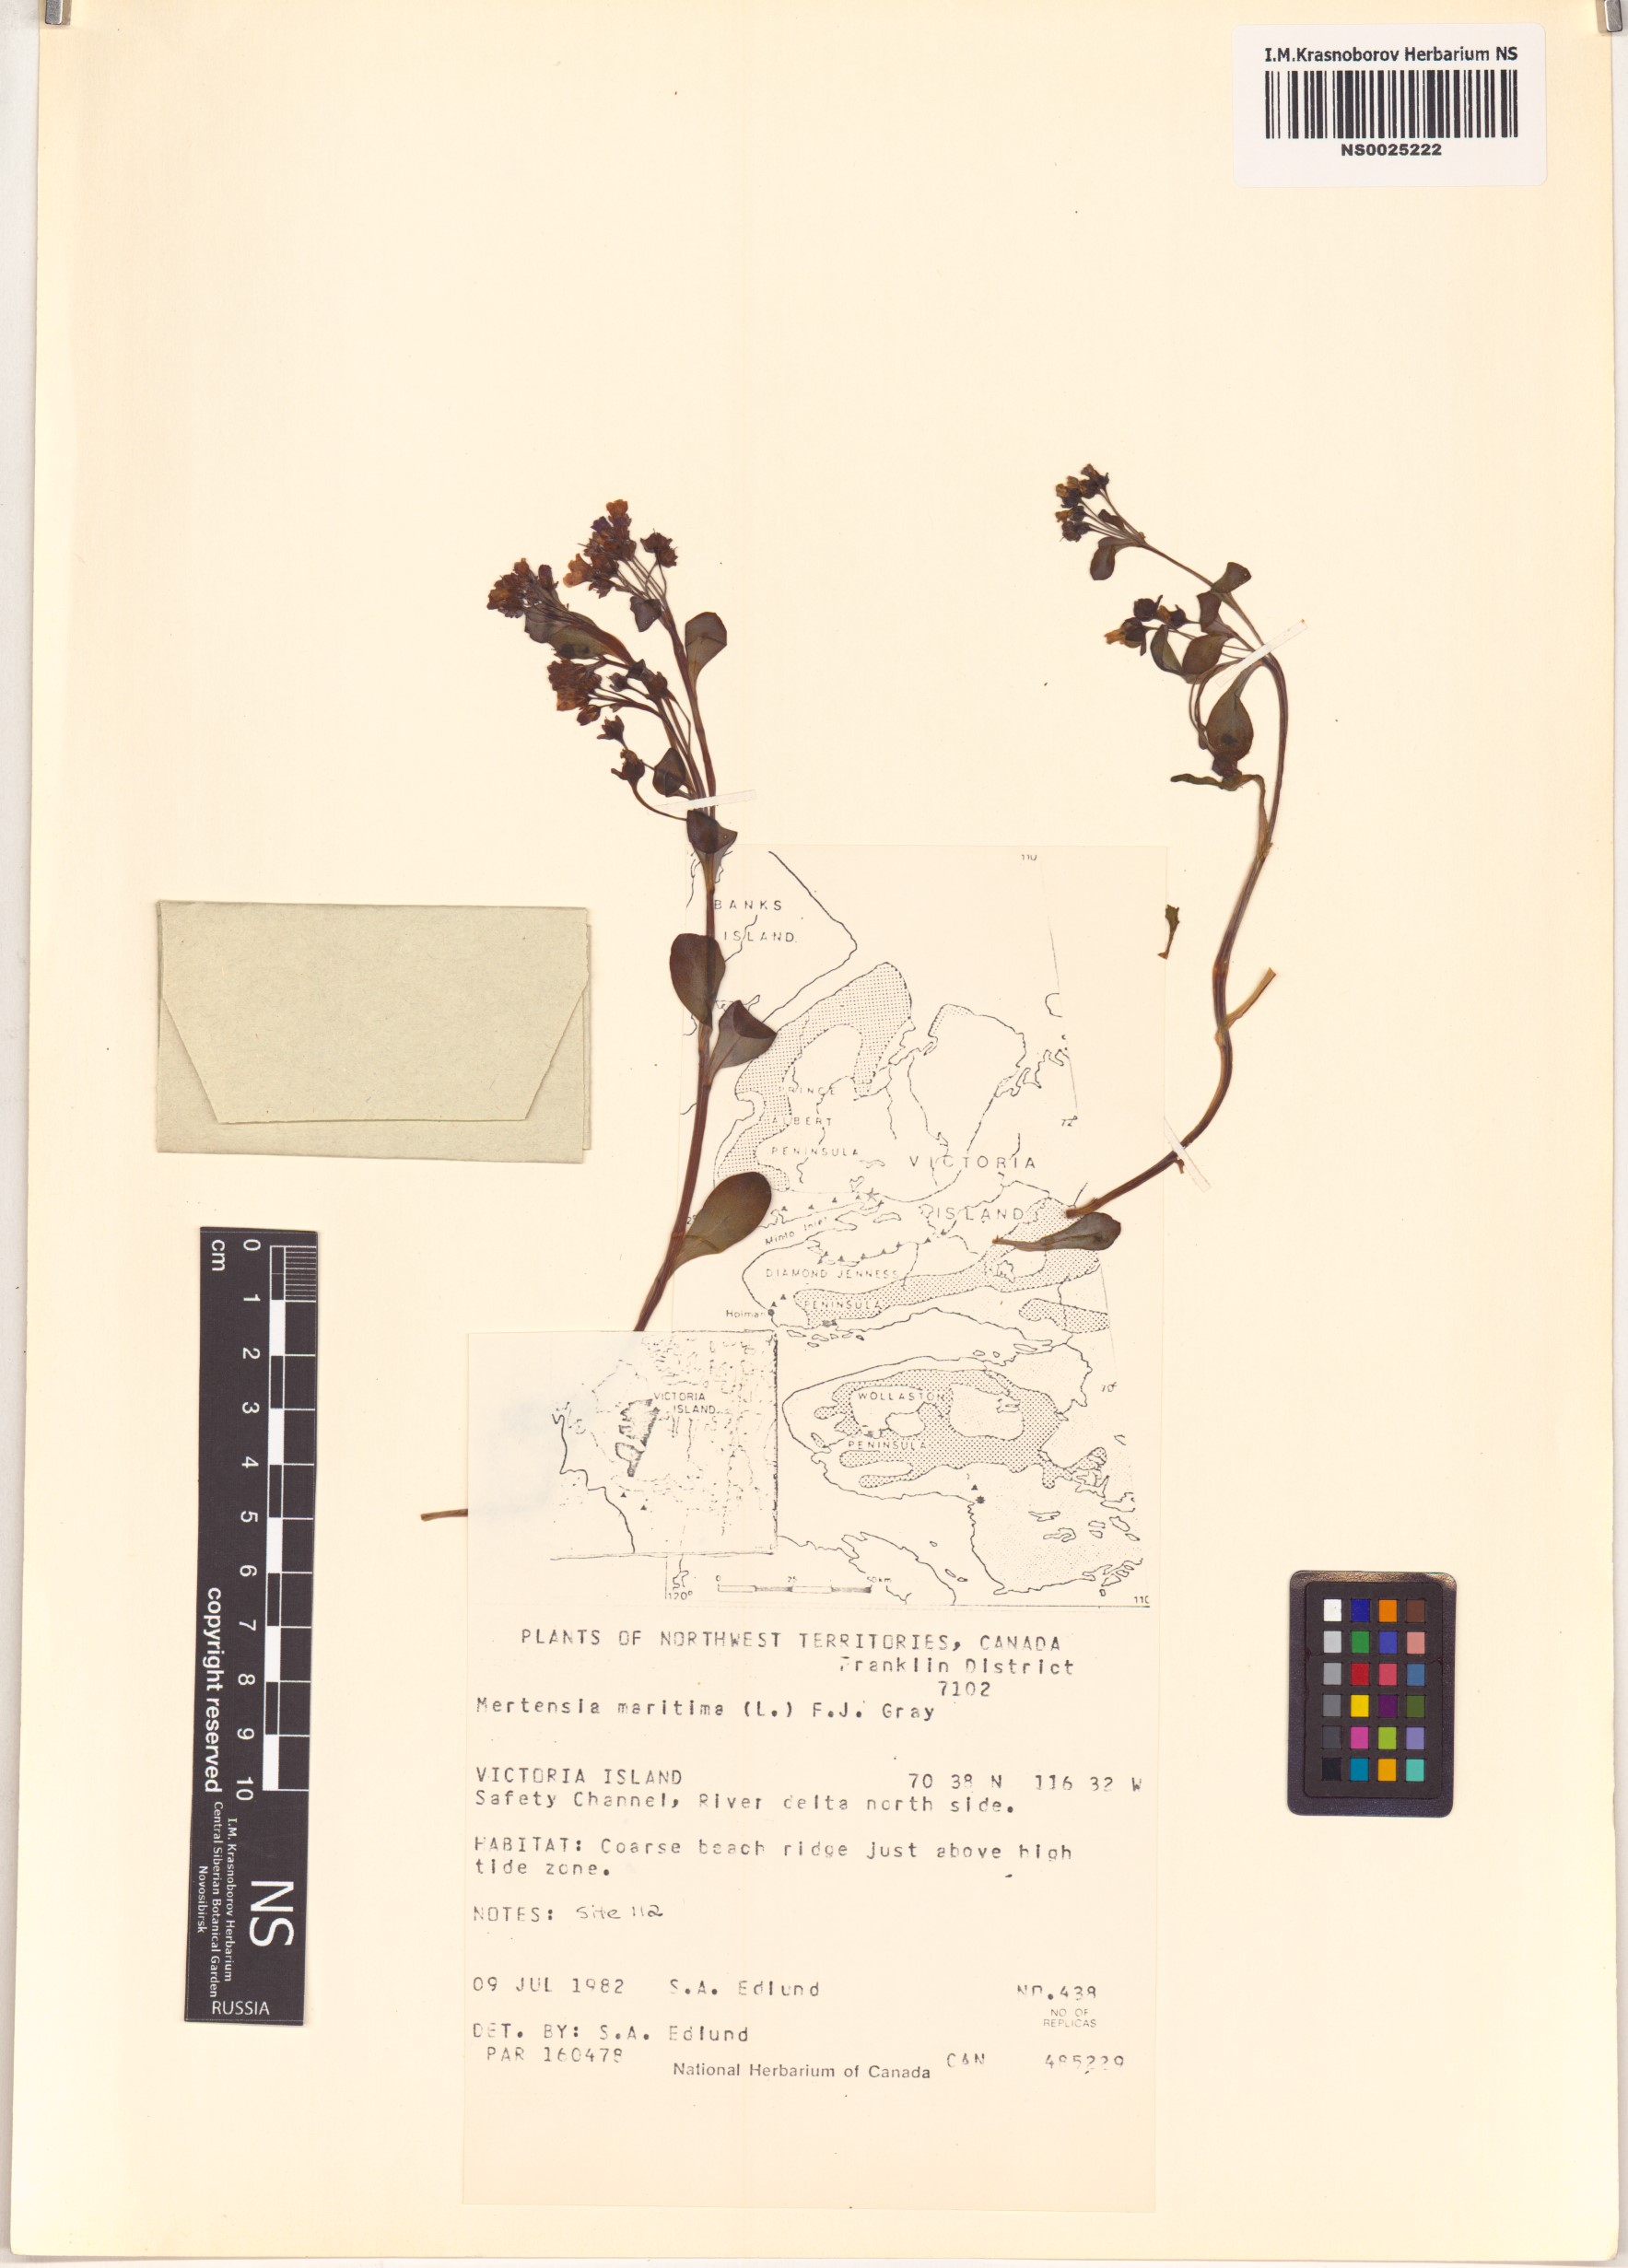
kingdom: Plantae
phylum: Tracheophyta
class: Magnoliopsida
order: Boraginales
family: Boraginaceae
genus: Mertensia
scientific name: Mertensia maritima
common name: Oysterplant
